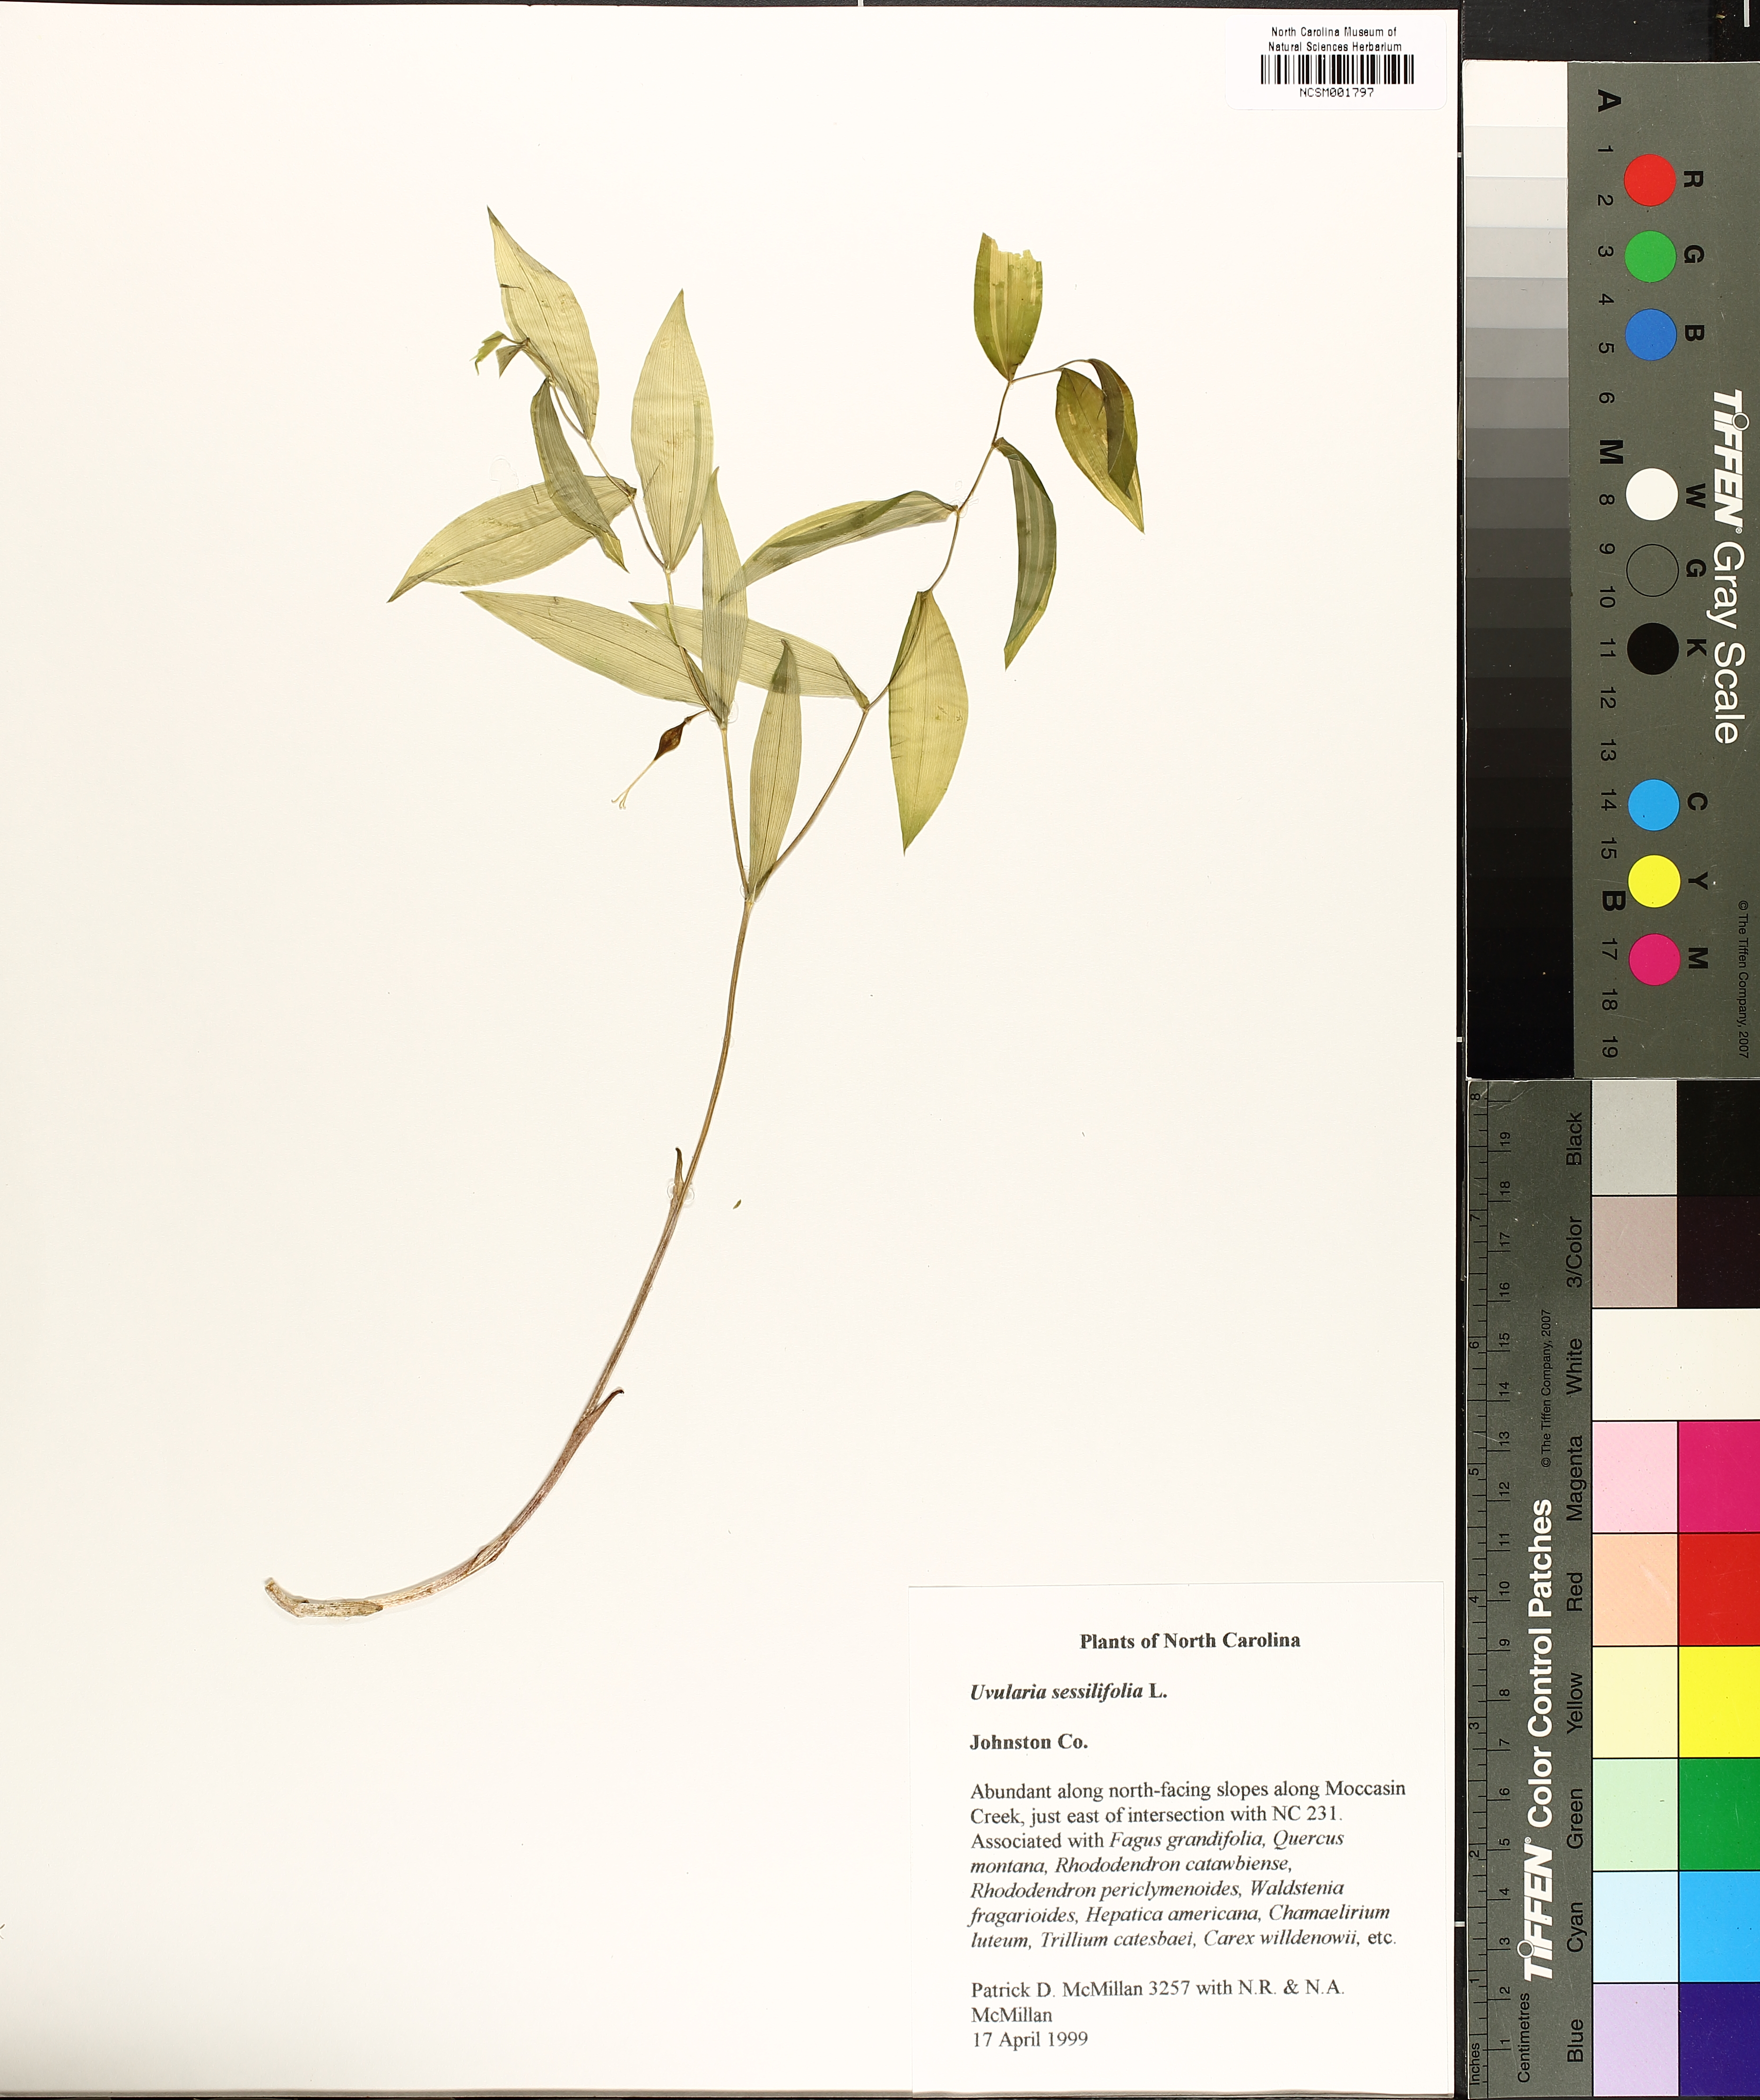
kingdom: Plantae
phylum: Tracheophyta
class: Liliopsida
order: Liliales
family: Colchicaceae
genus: Uvularia
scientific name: Uvularia sessilifolia
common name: Straw-lily
